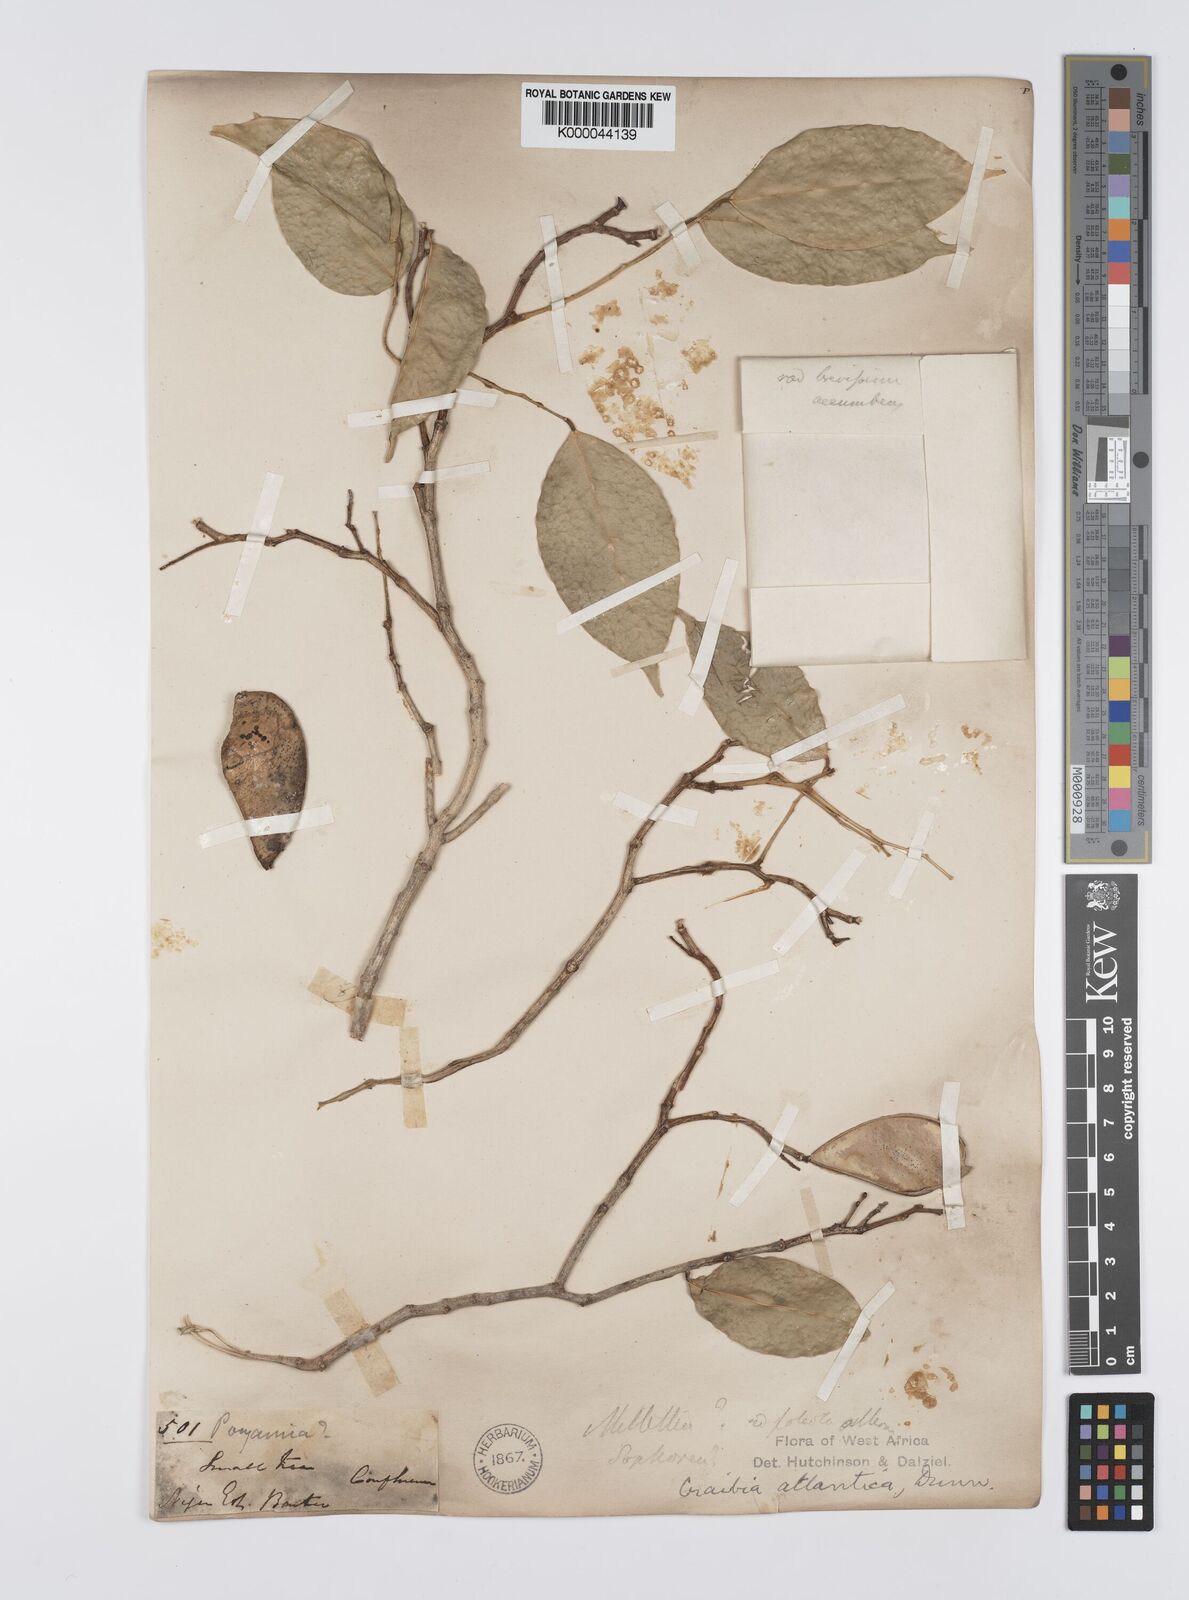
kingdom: Plantae
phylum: Tracheophyta
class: Magnoliopsida
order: Fabales
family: Fabaceae
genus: Craibia
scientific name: Craibia atlantica
